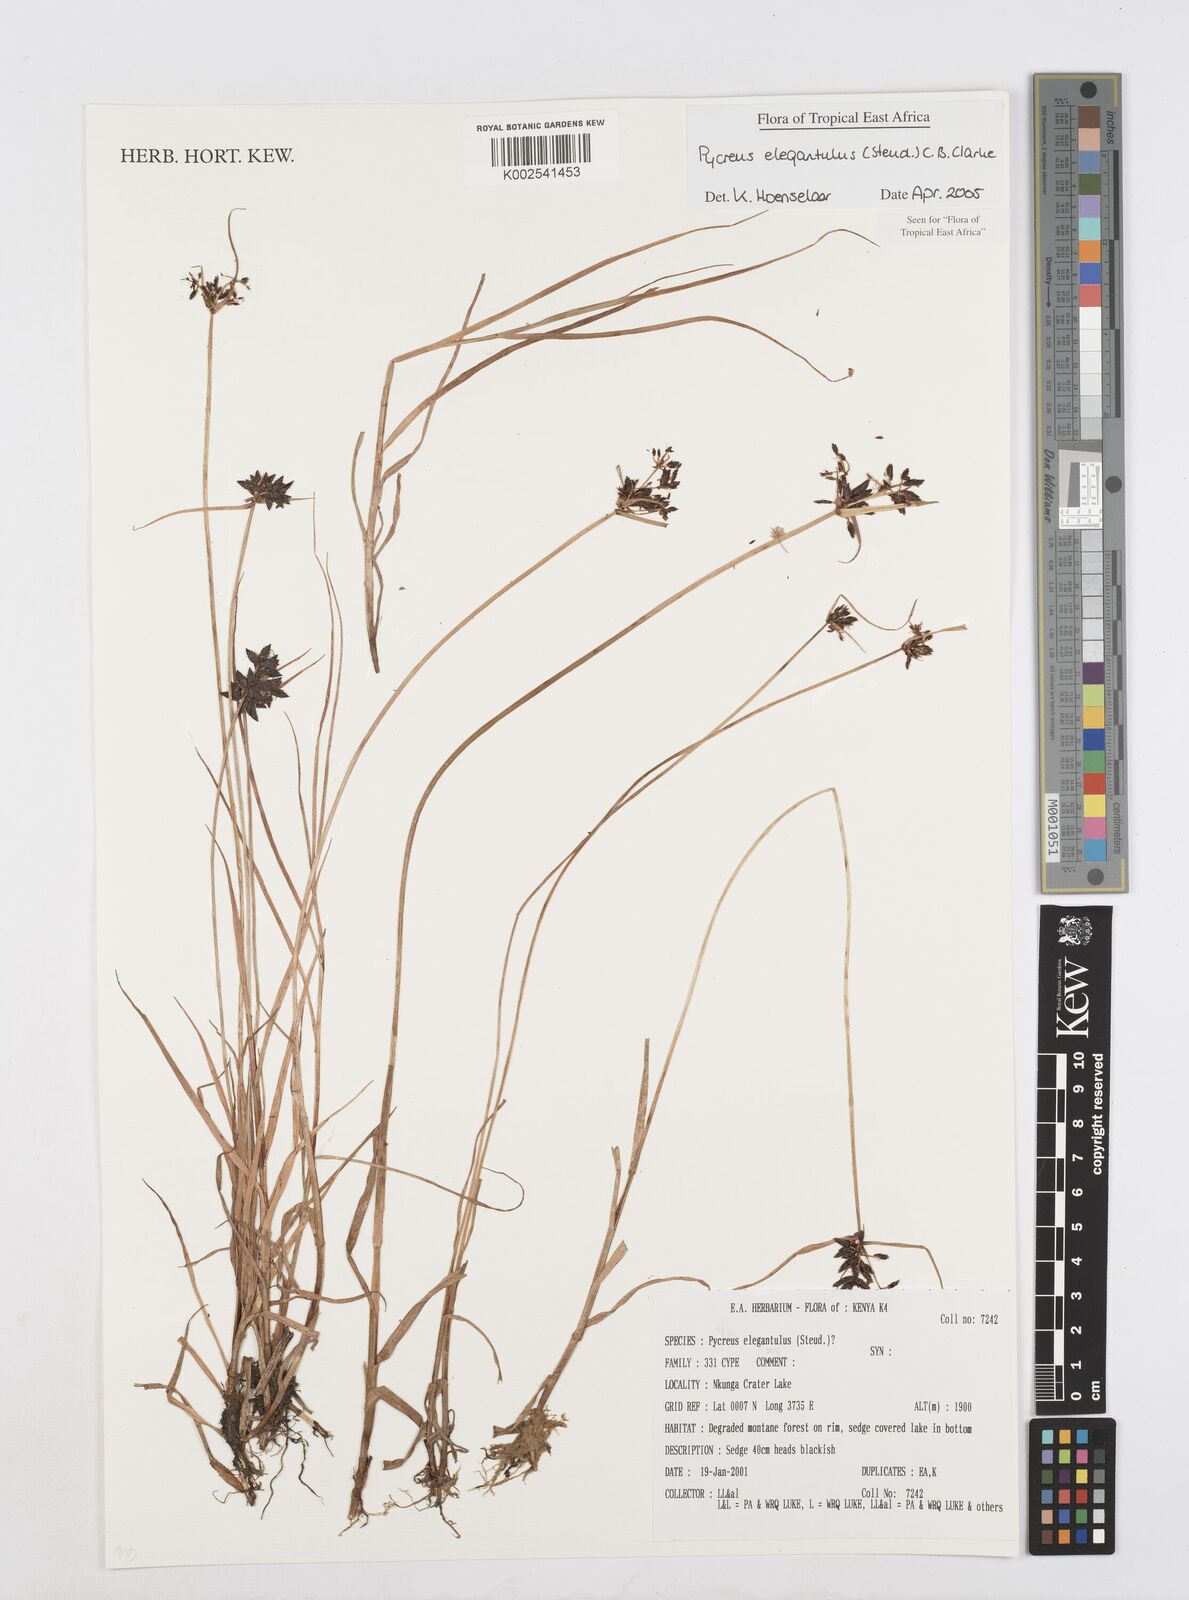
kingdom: Plantae
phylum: Tracheophyta
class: Liliopsida
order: Poales
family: Cyperaceae
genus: Cyperus
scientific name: Cyperus elegantulus
